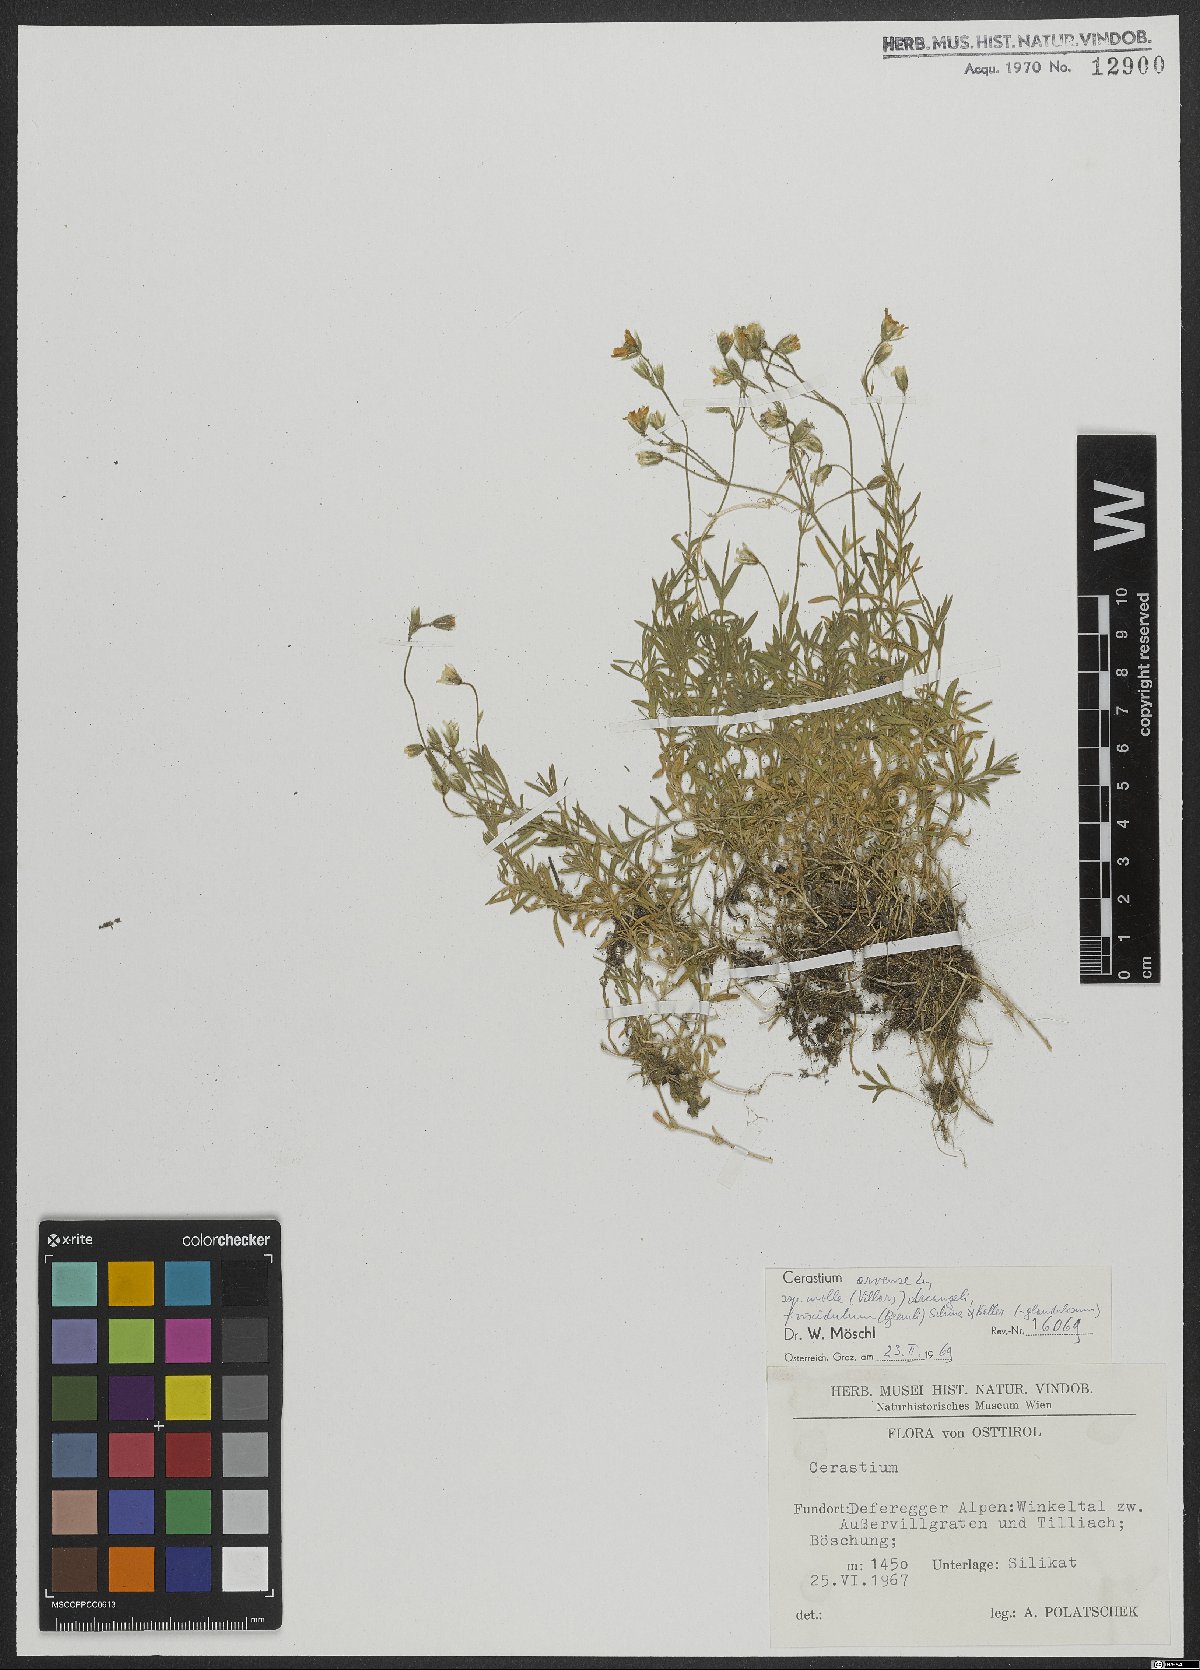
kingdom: Plantae
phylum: Tracheophyta
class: Magnoliopsida
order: Caryophyllales
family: Caryophyllaceae
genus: Cerastium
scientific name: Cerastium arvense
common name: Field mouse-ear
